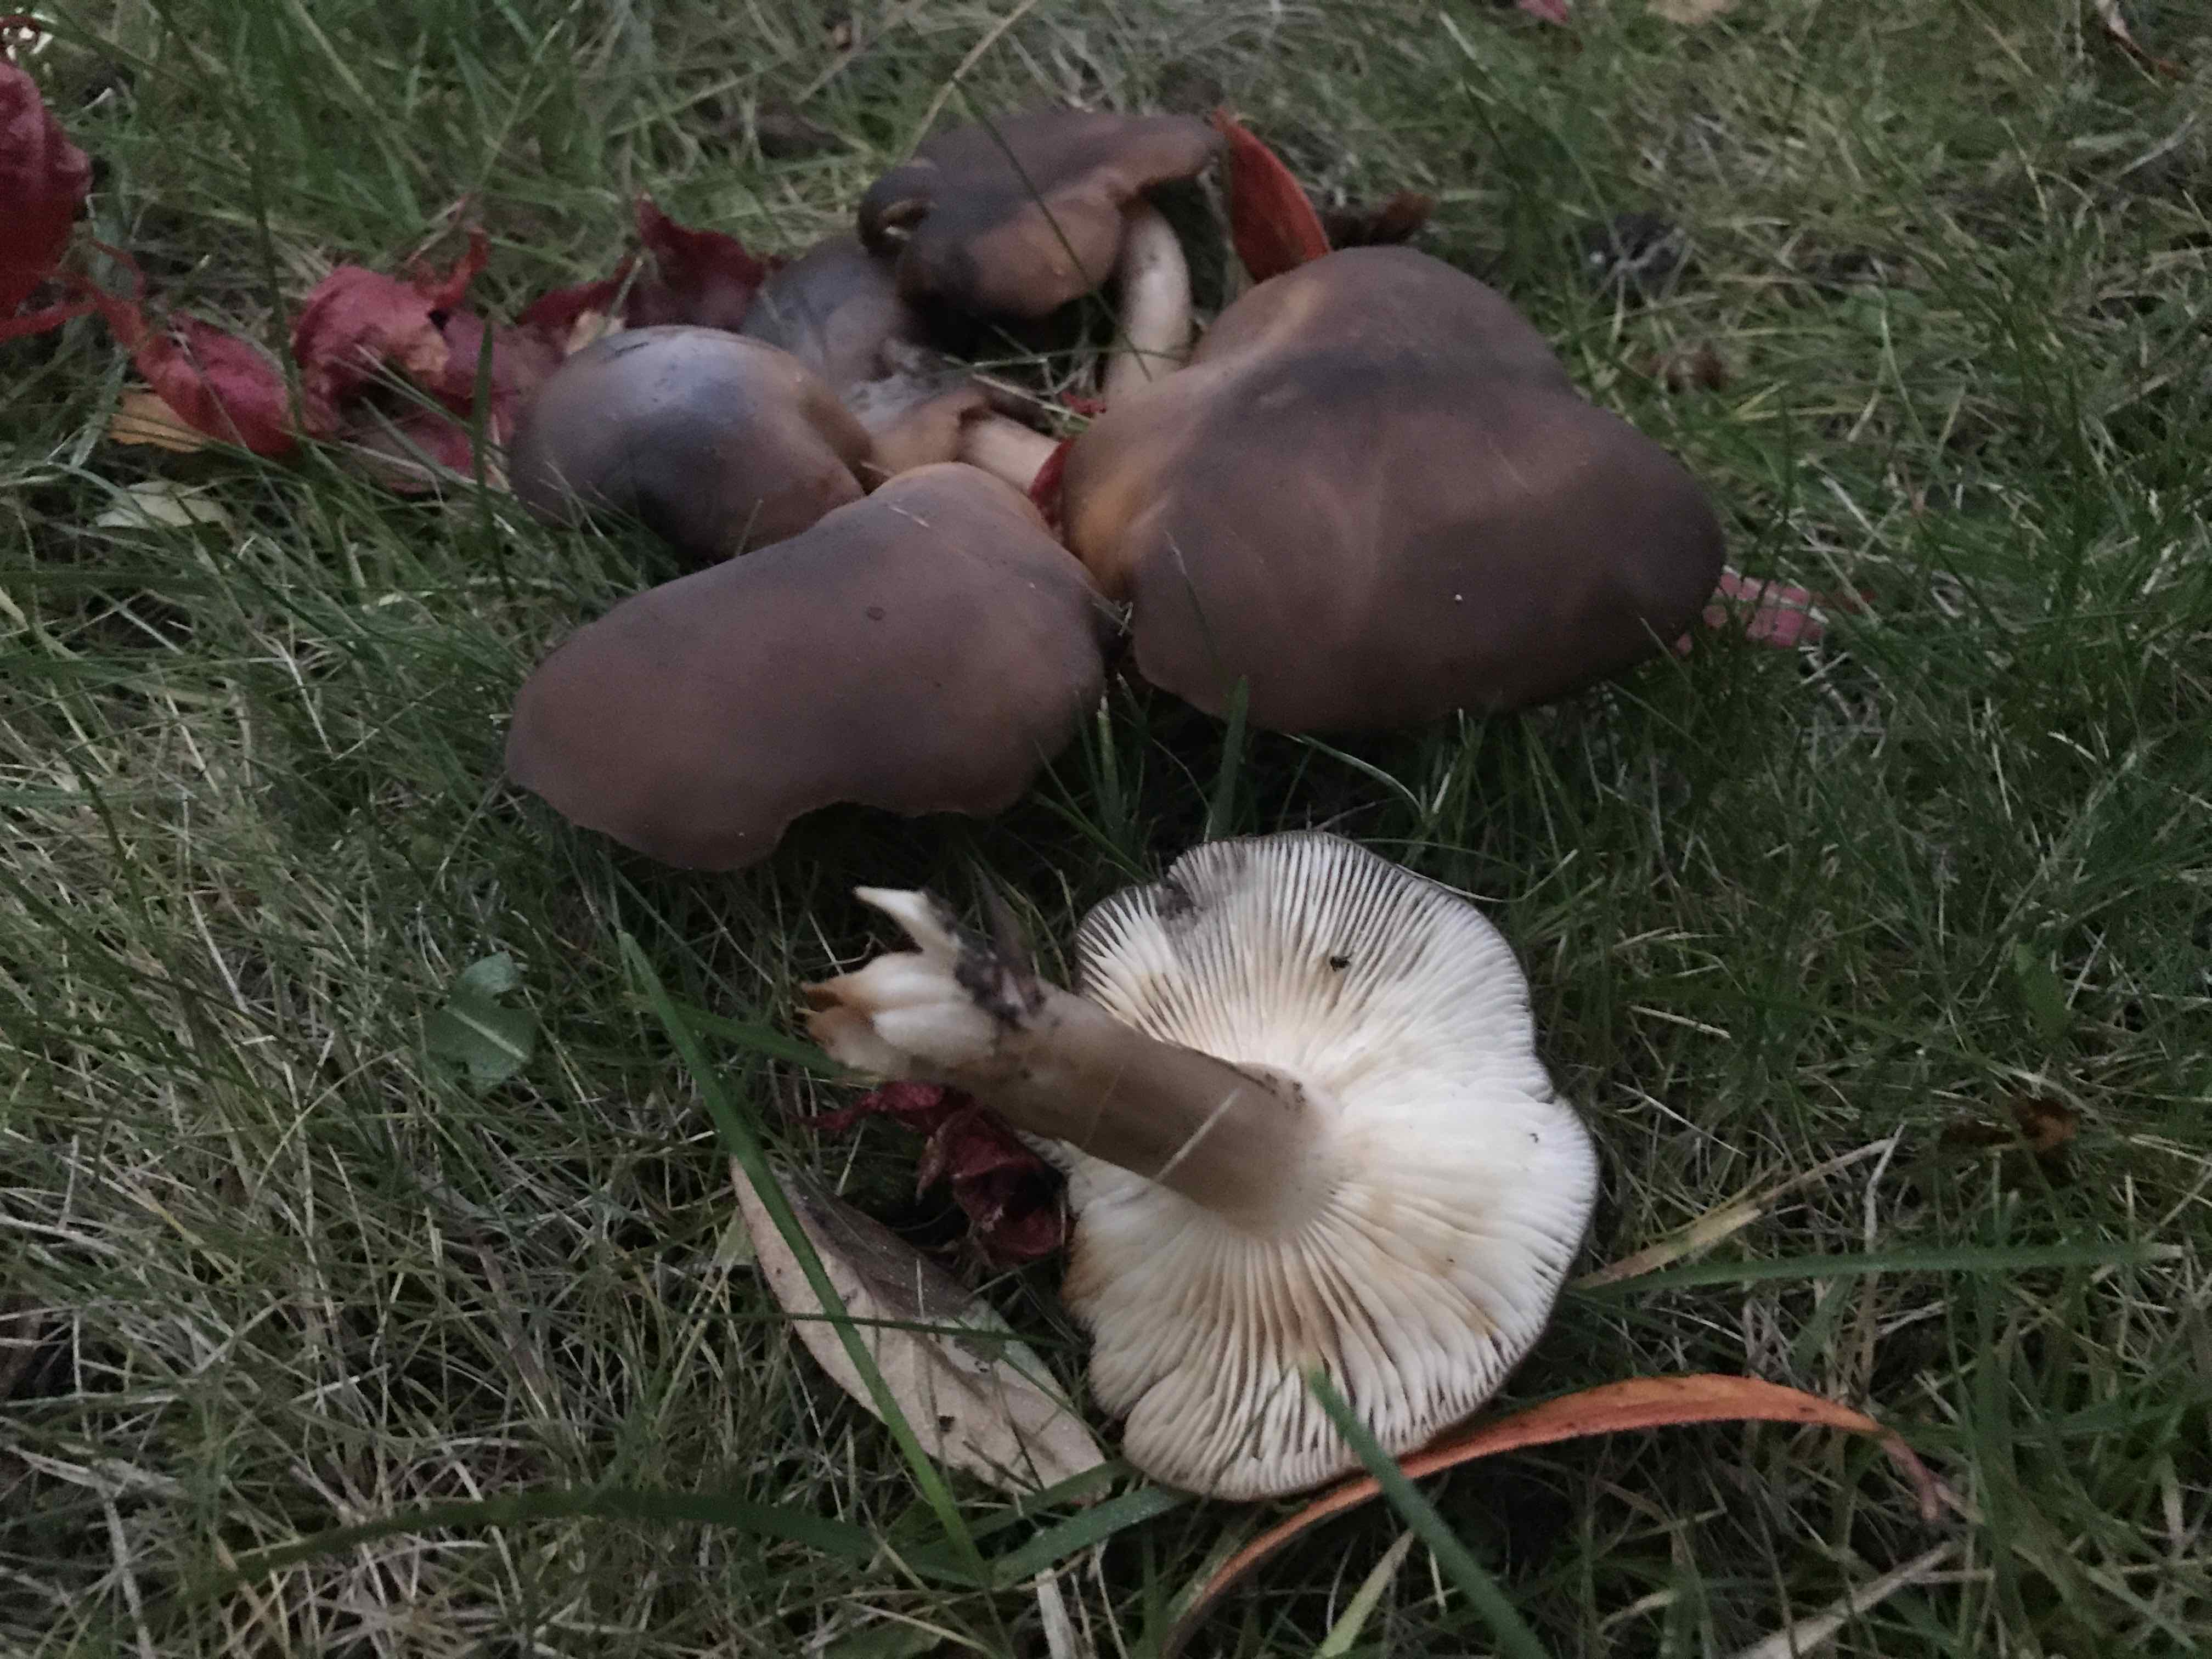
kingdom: Fungi
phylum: Basidiomycota
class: Agaricomycetes
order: Agaricales
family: Lyophyllaceae
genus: Lyophyllum
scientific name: Lyophyllum decastes
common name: røggrå gråblad
